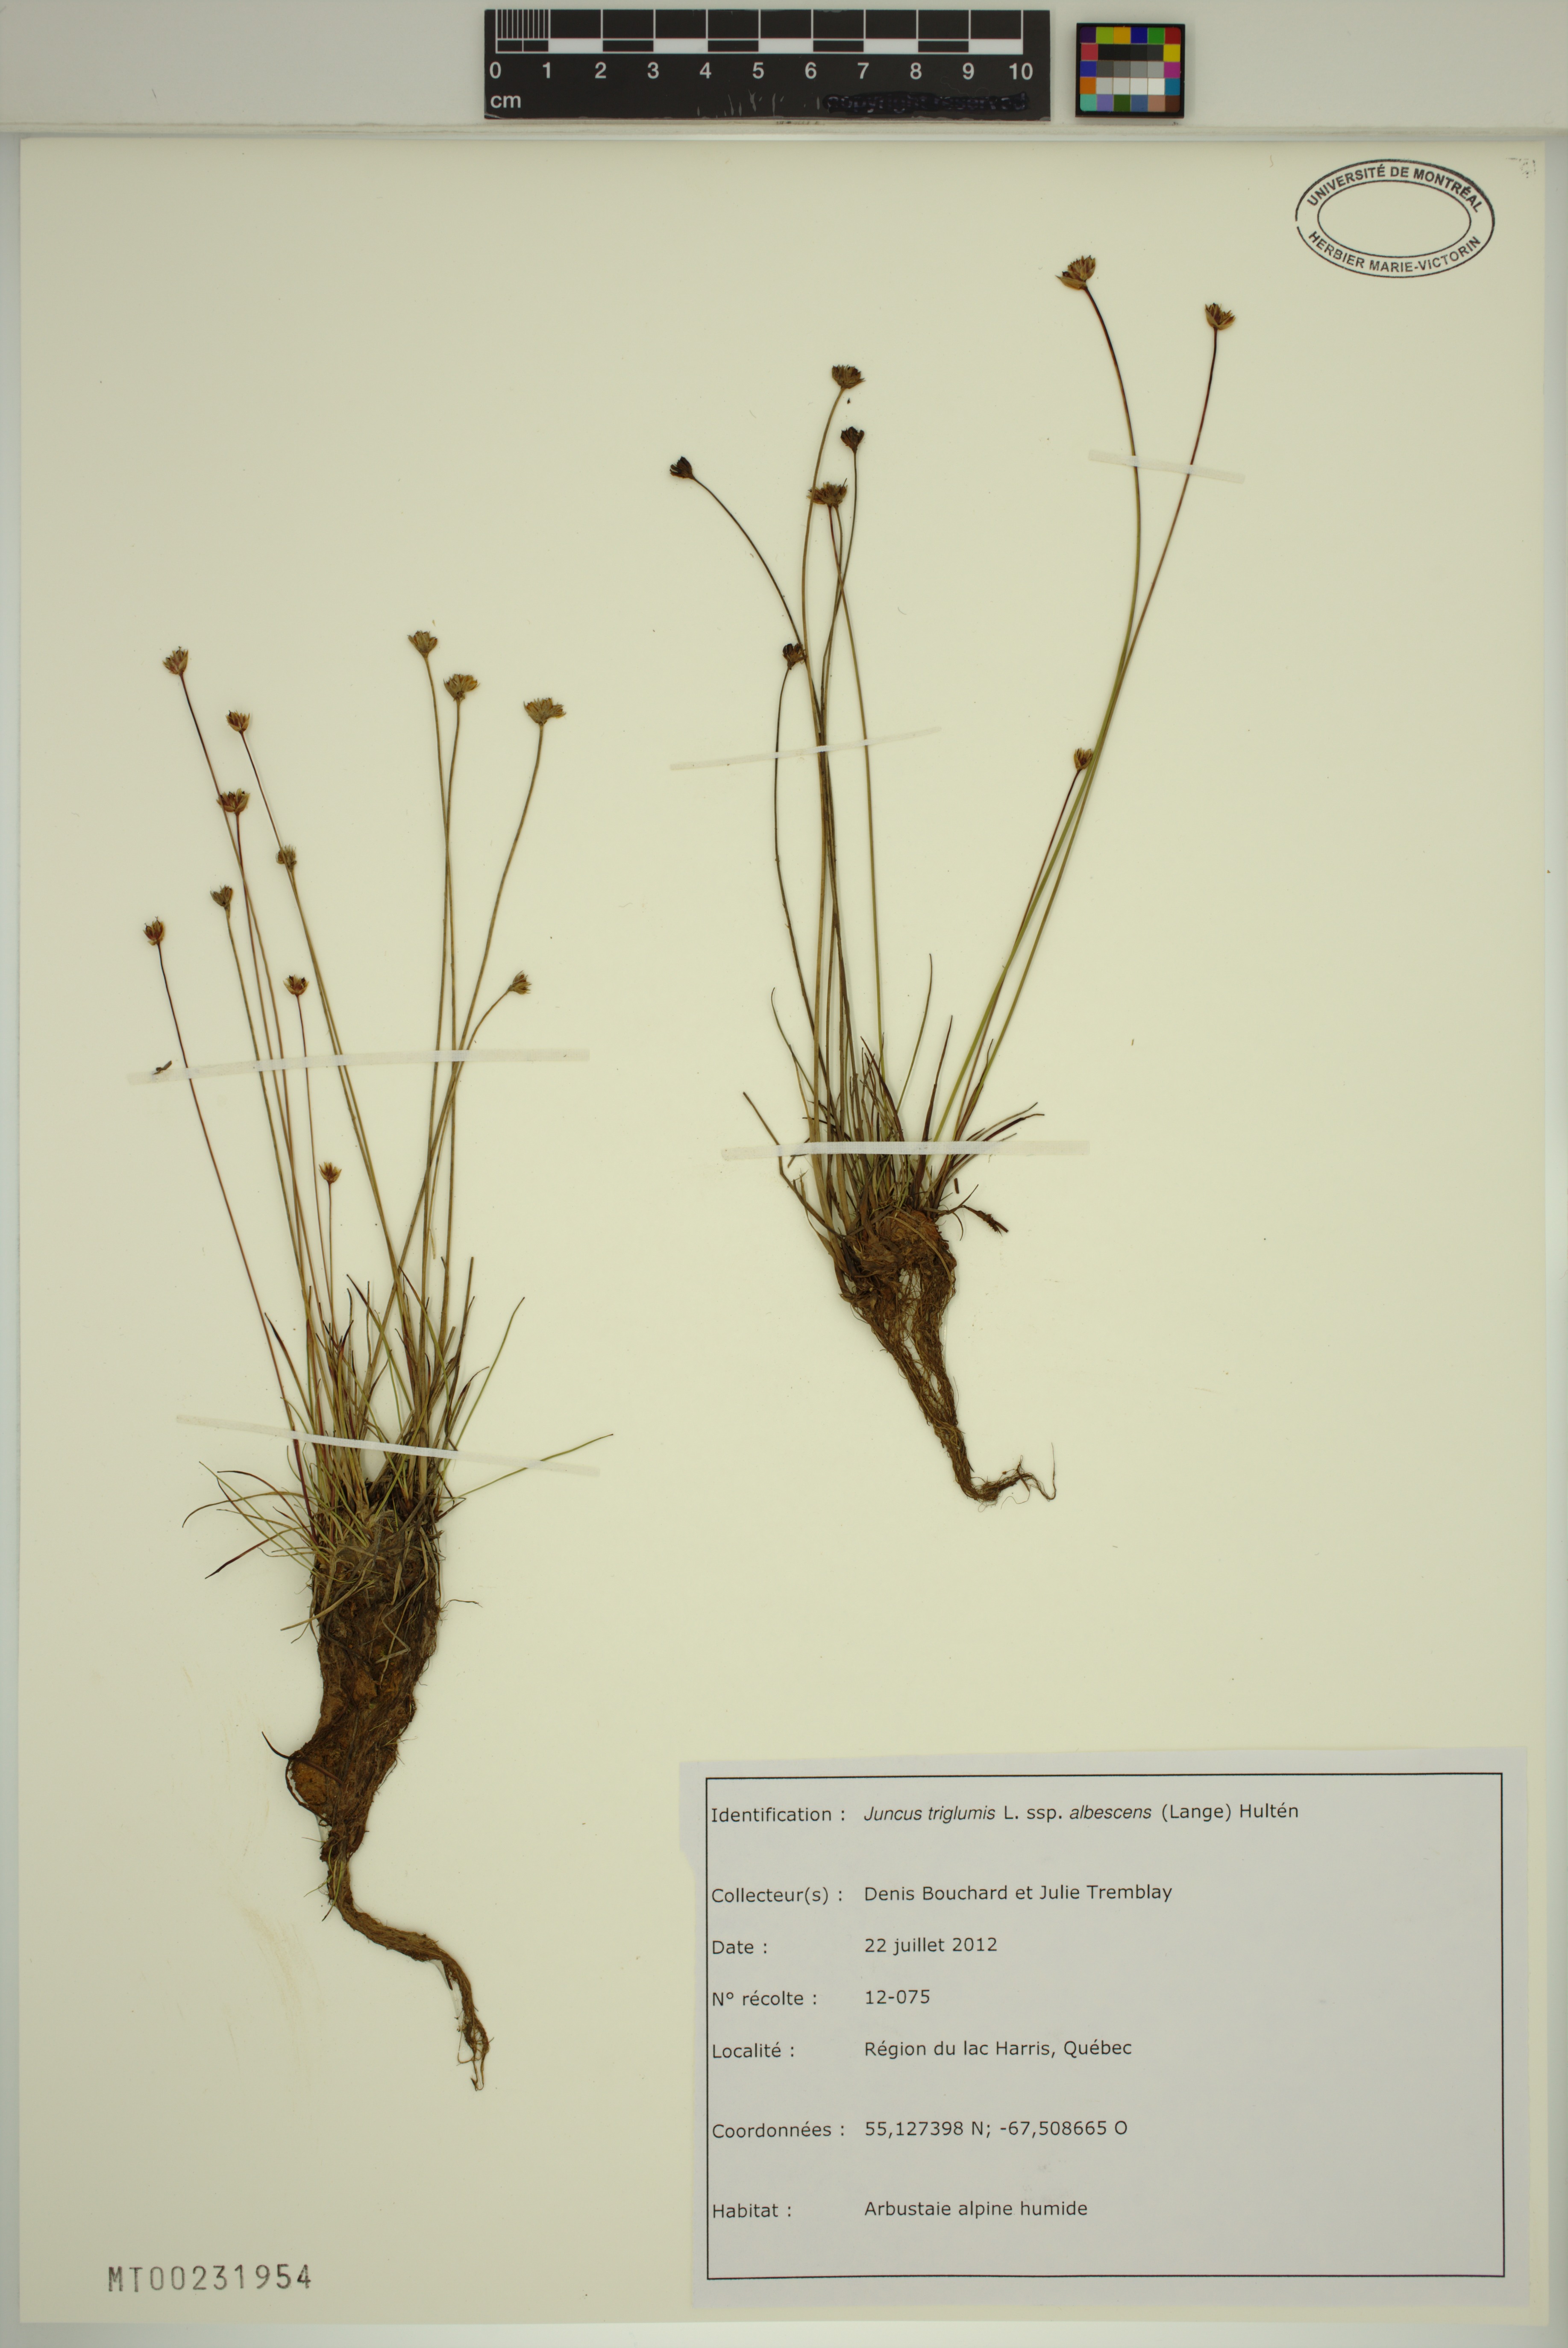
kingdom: Plantae
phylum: Tracheophyta
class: Liliopsida
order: Poales
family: Juncaceae
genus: Juncus
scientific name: Juncus albescens
